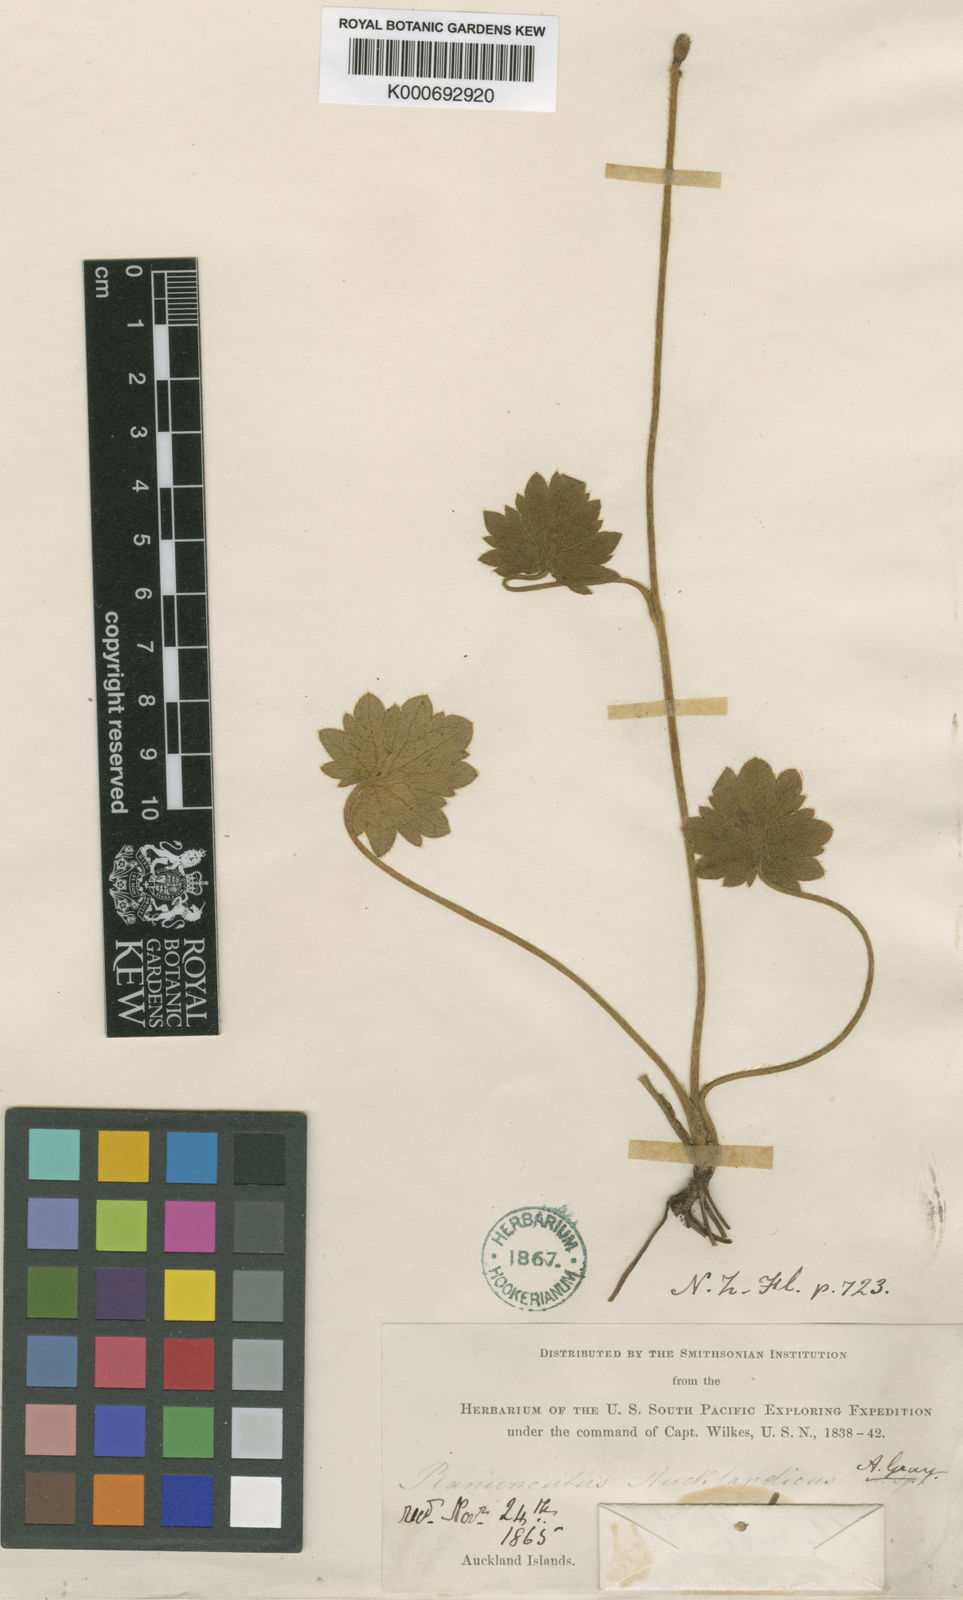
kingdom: Plantae
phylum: Tracheophyta
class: Magnoliopsida
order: Ranunculales
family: Ranunculaceae
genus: Ranunculus
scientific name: Ranunculus subscaposus
